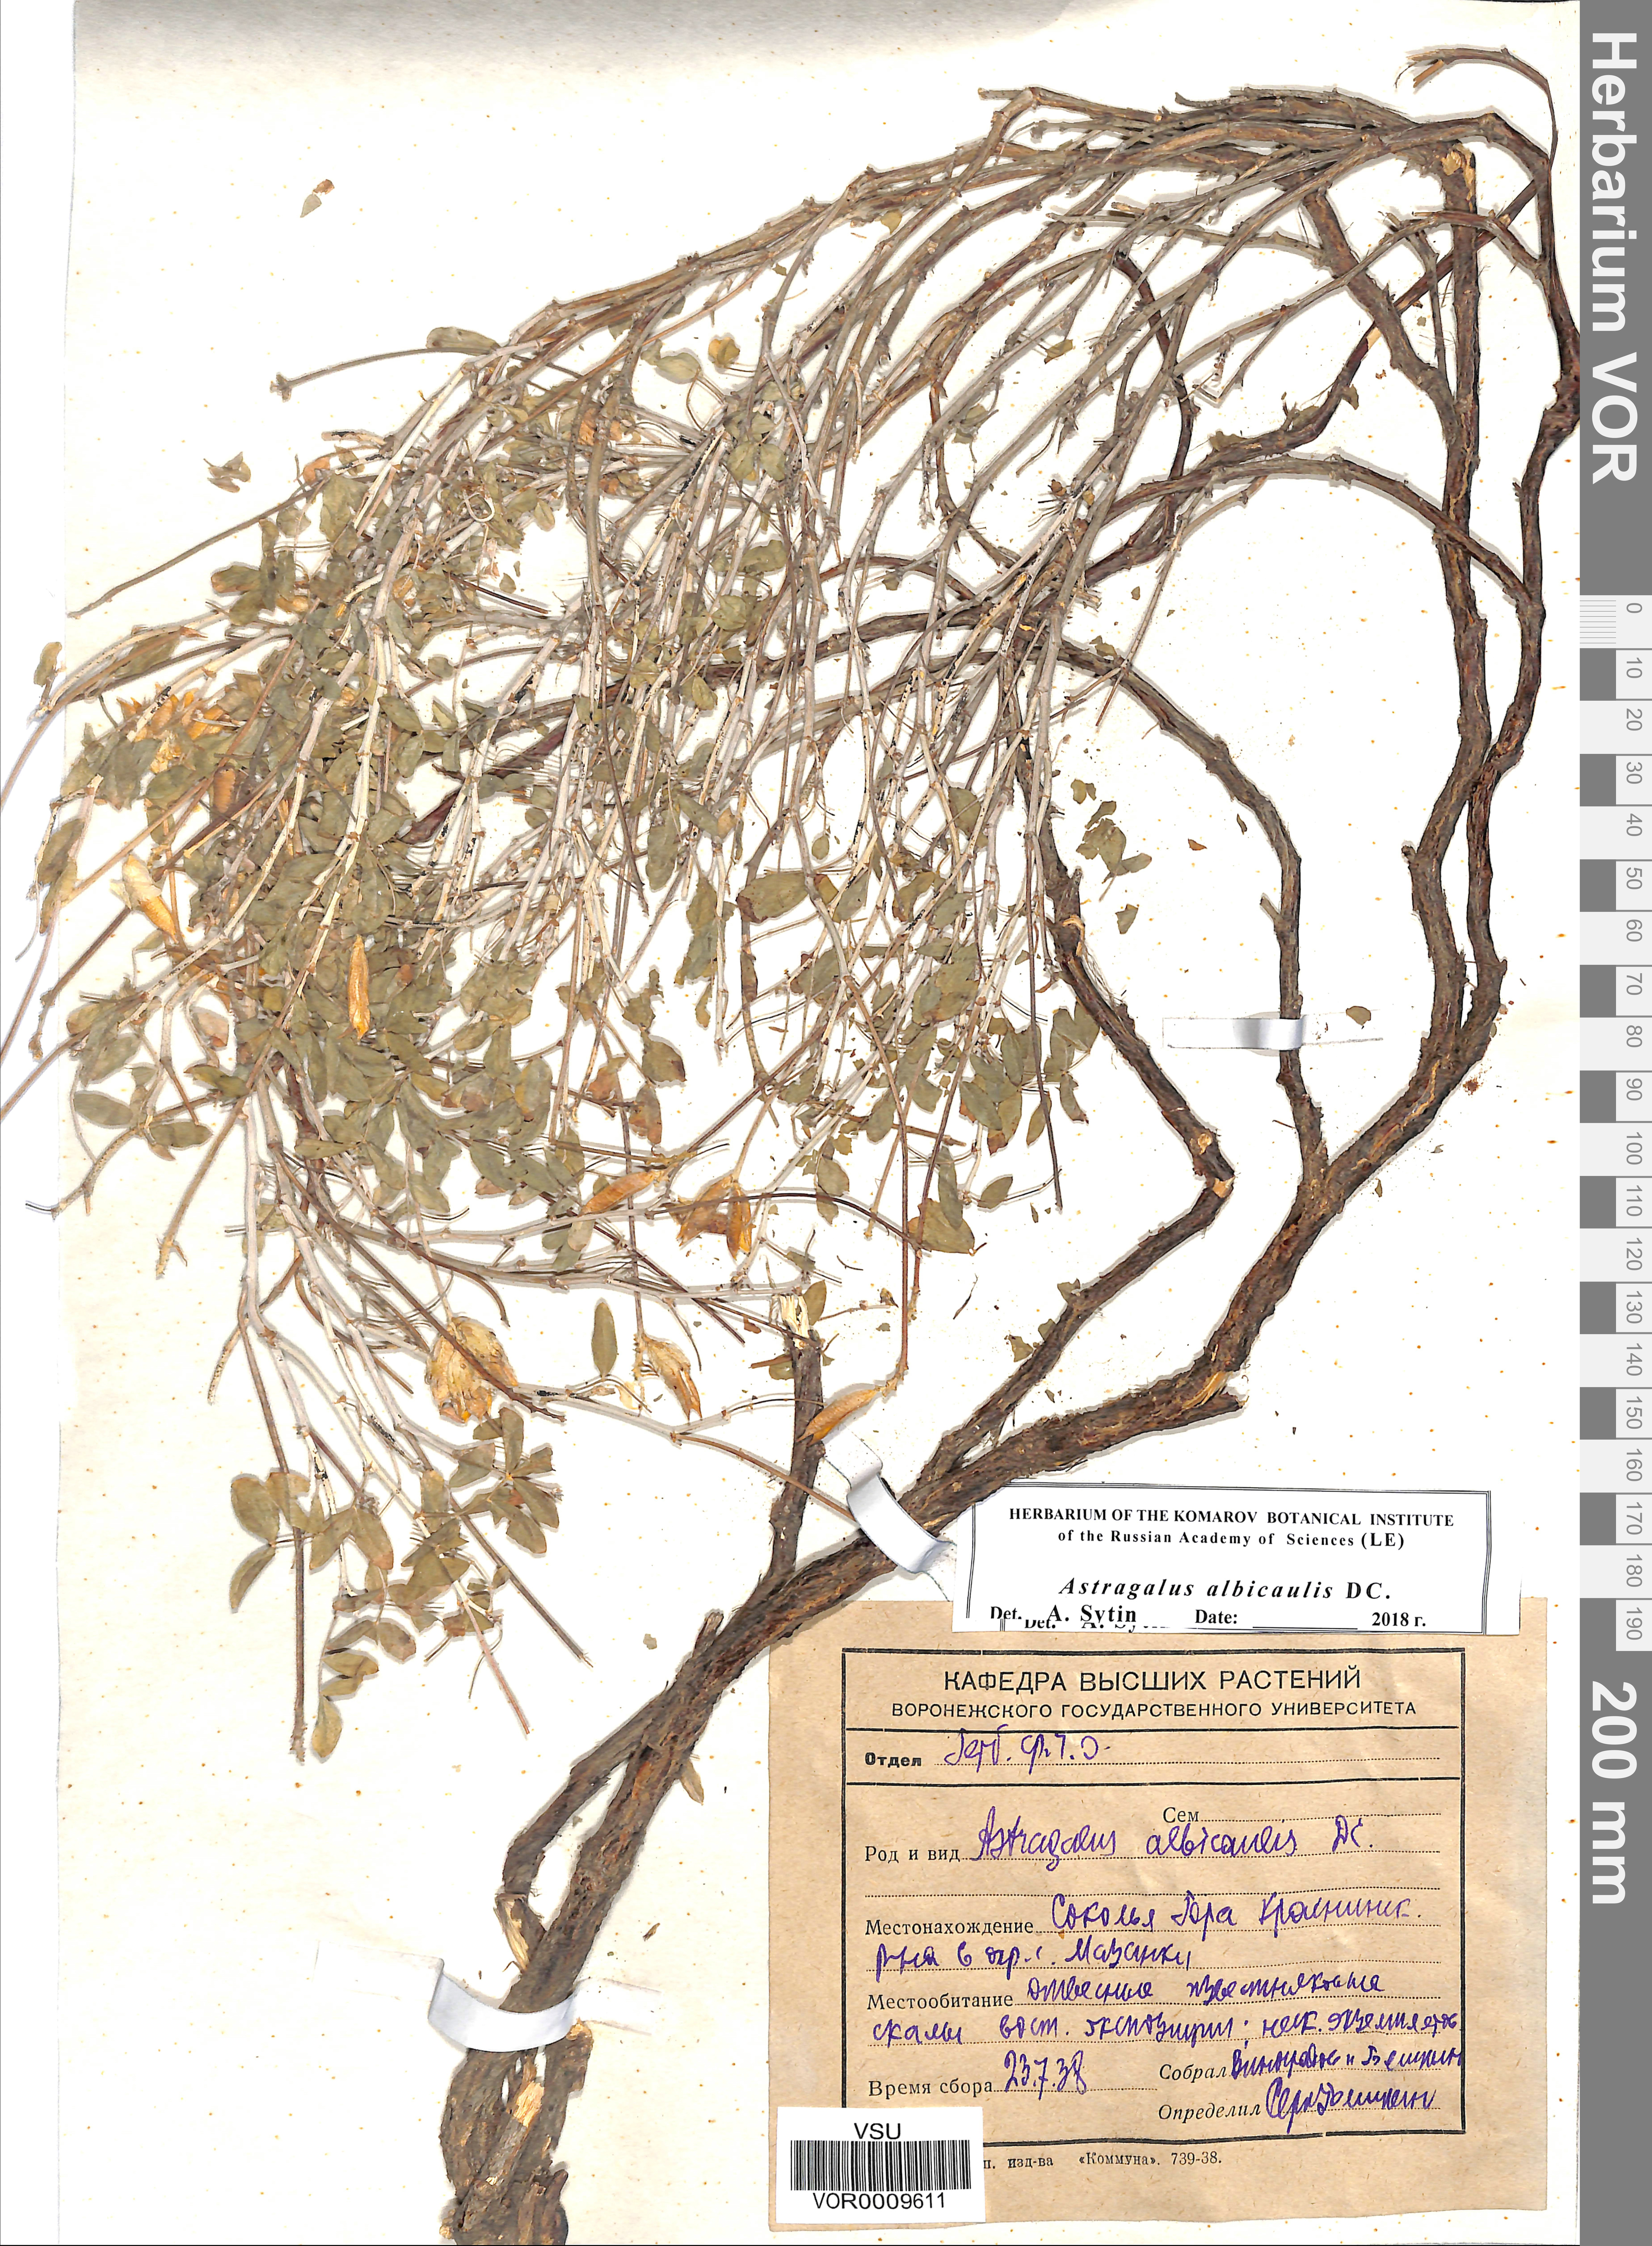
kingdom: Plantae
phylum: Tracheophyta
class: Magnoliopsida
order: Fabales
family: Fabaceae
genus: Astragalus
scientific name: Astragalus albicaulis
